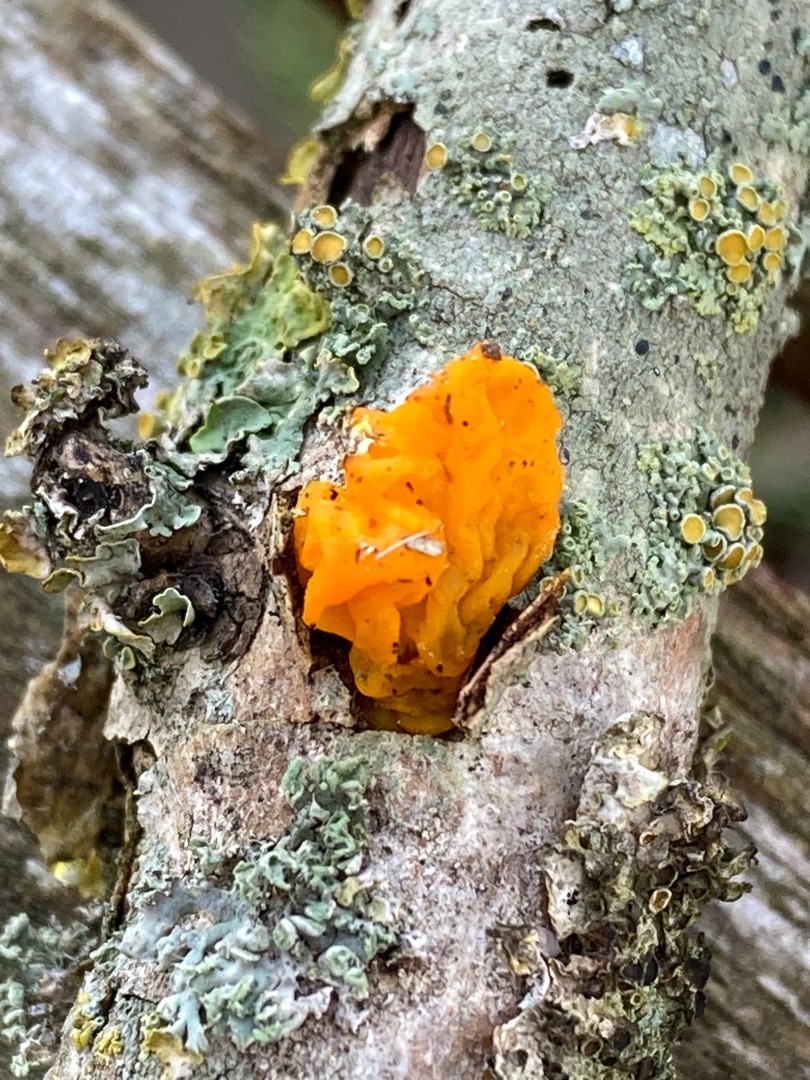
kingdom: Fungi
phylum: Basidiomycota
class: Tremellomycetes
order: Tremellales
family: Tremellaceae
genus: Tremella
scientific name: Tremella mesenterica
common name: Gul bævresvamp
